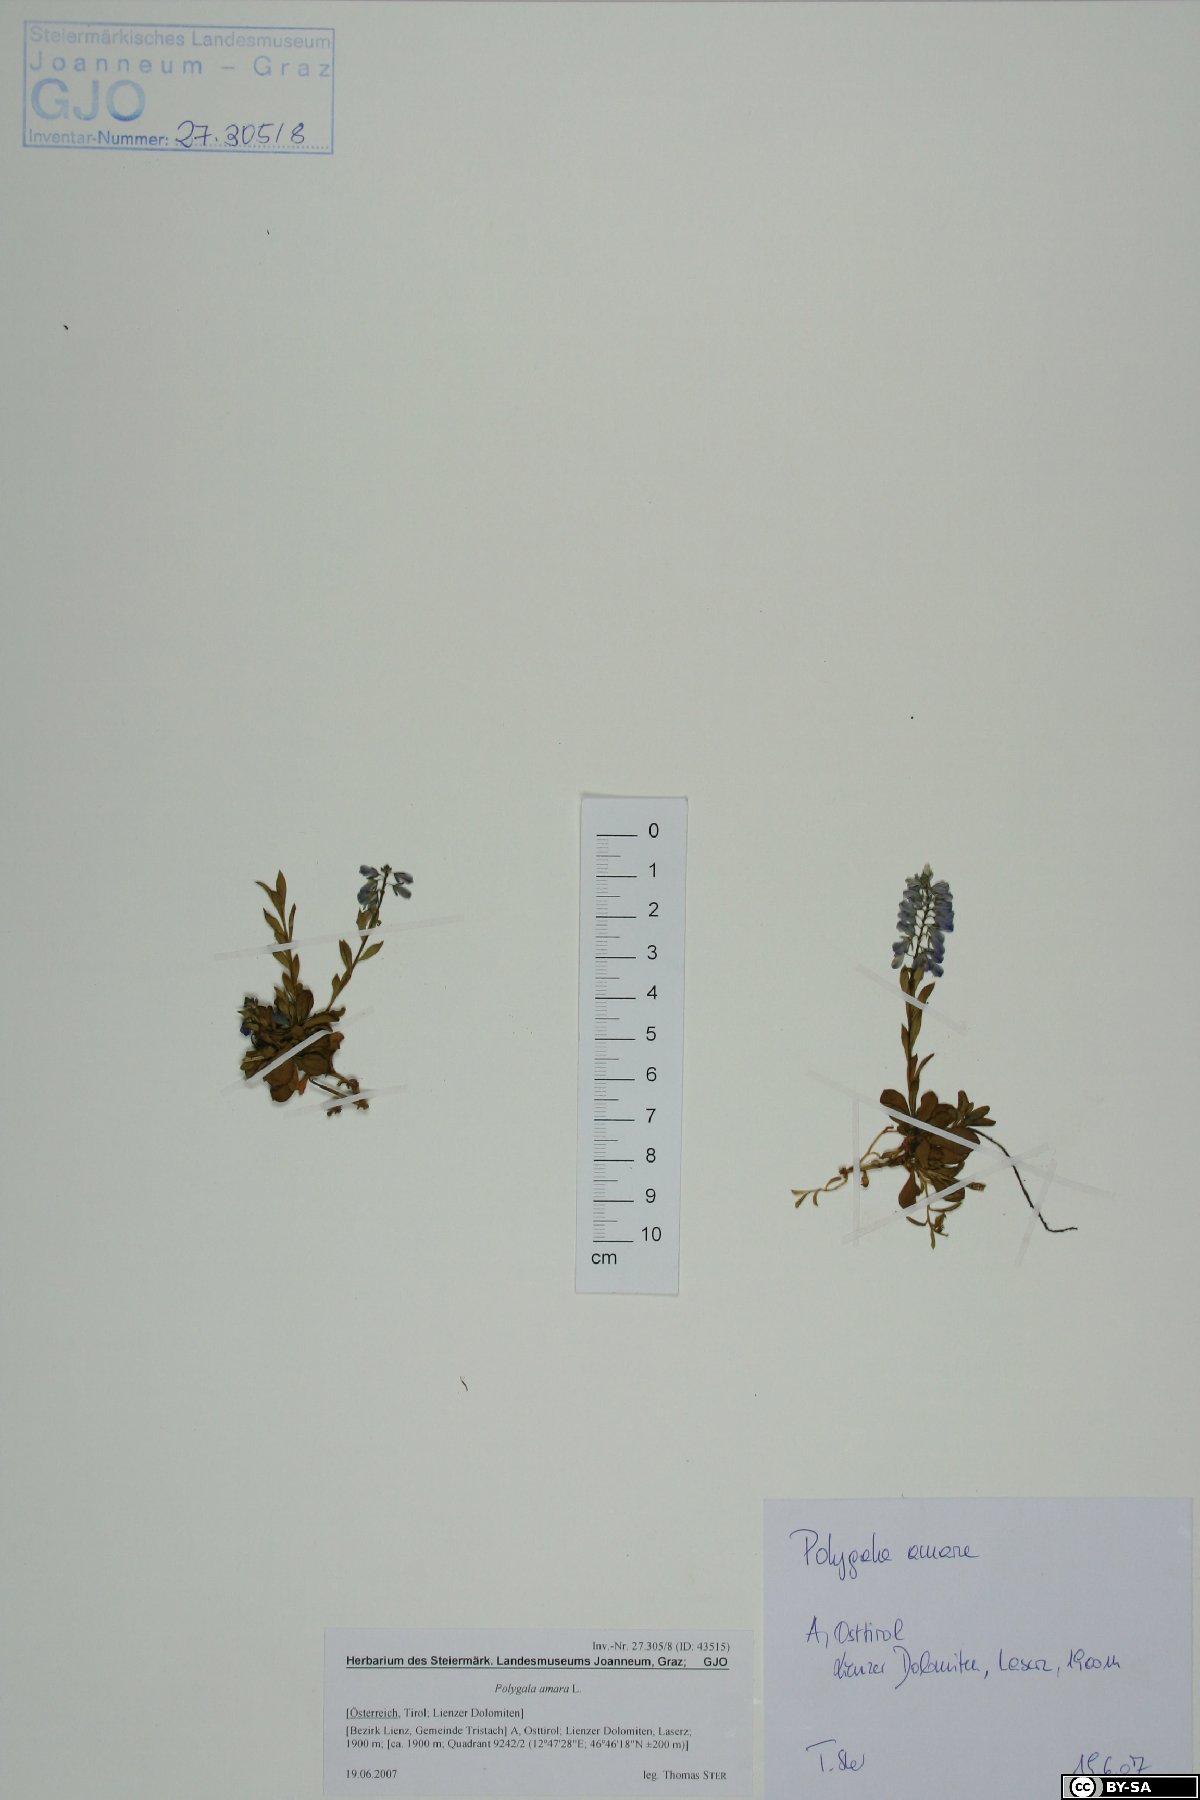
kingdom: Plantae
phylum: Tracheophyta
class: Magnoliopsida
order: Fabales
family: Polygalaceae
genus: Polygala
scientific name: Polygala amara
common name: Milkwort
